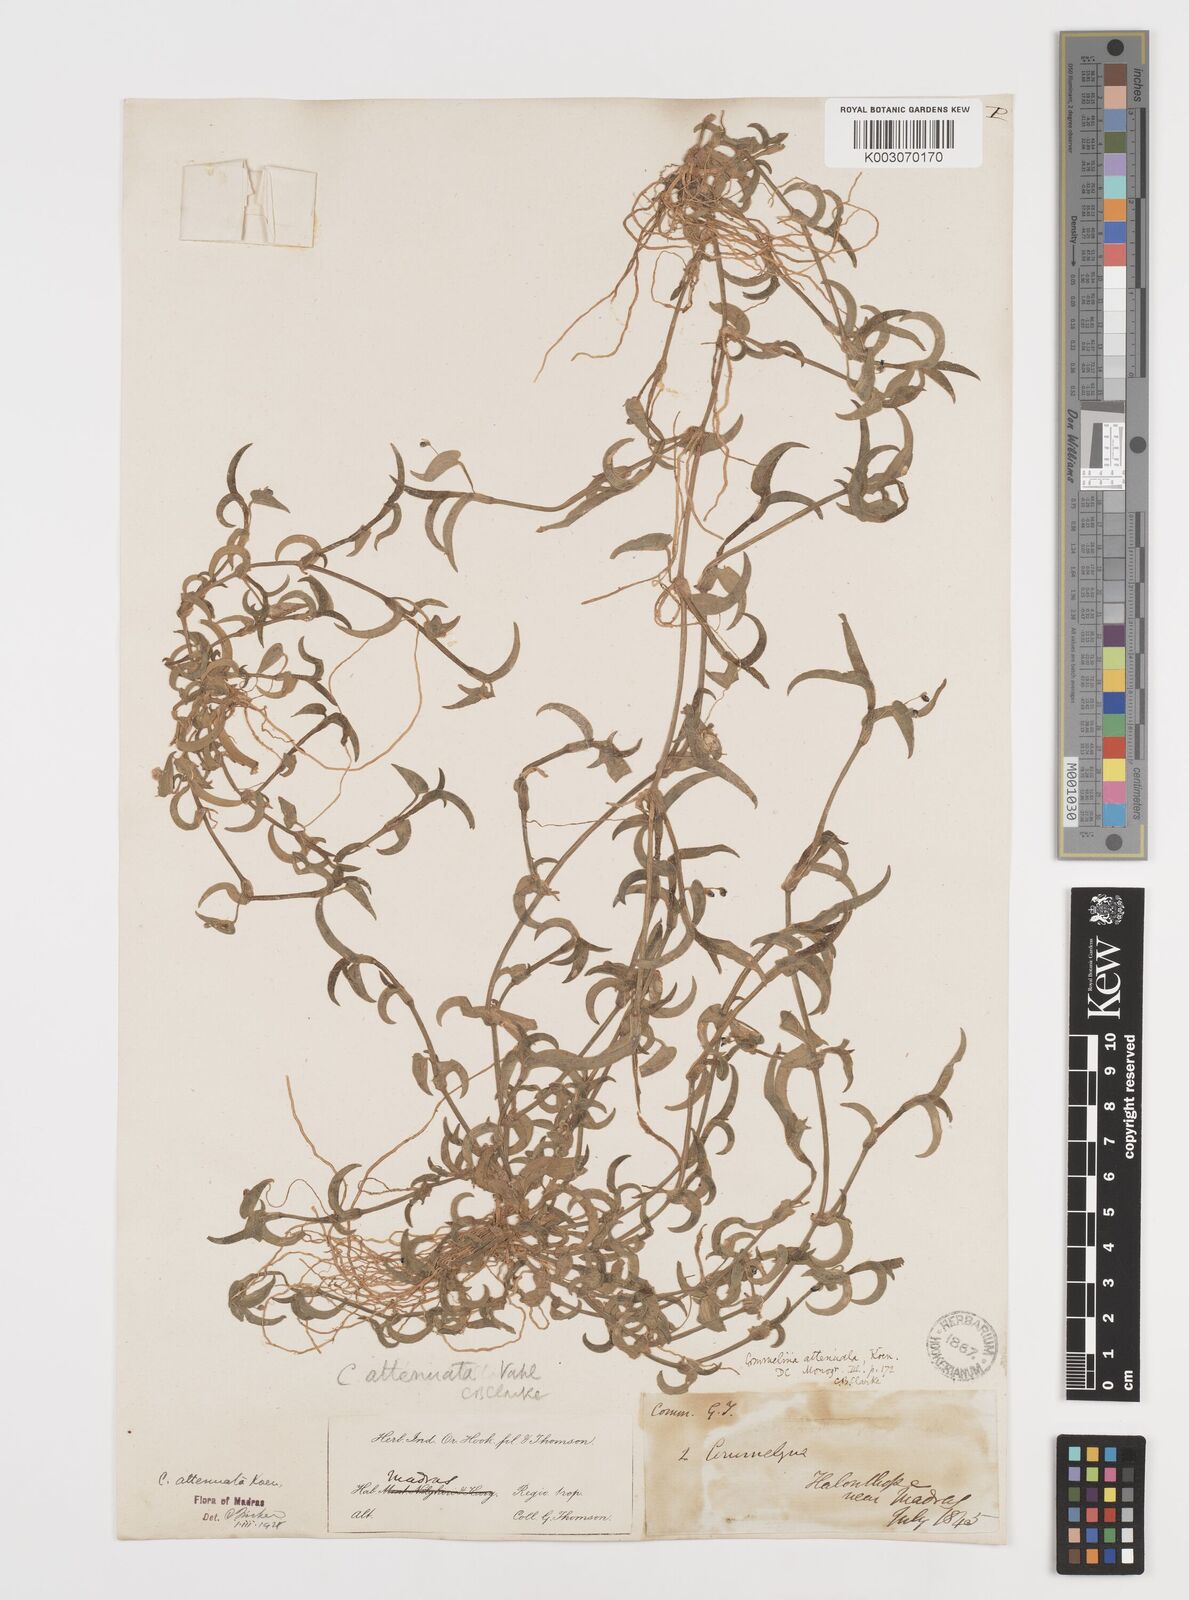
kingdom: Plantae
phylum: Tracheophyta
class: Liliopsida
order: Commelinales
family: Commelinaceae
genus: Commelina
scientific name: Commelina attenuata
